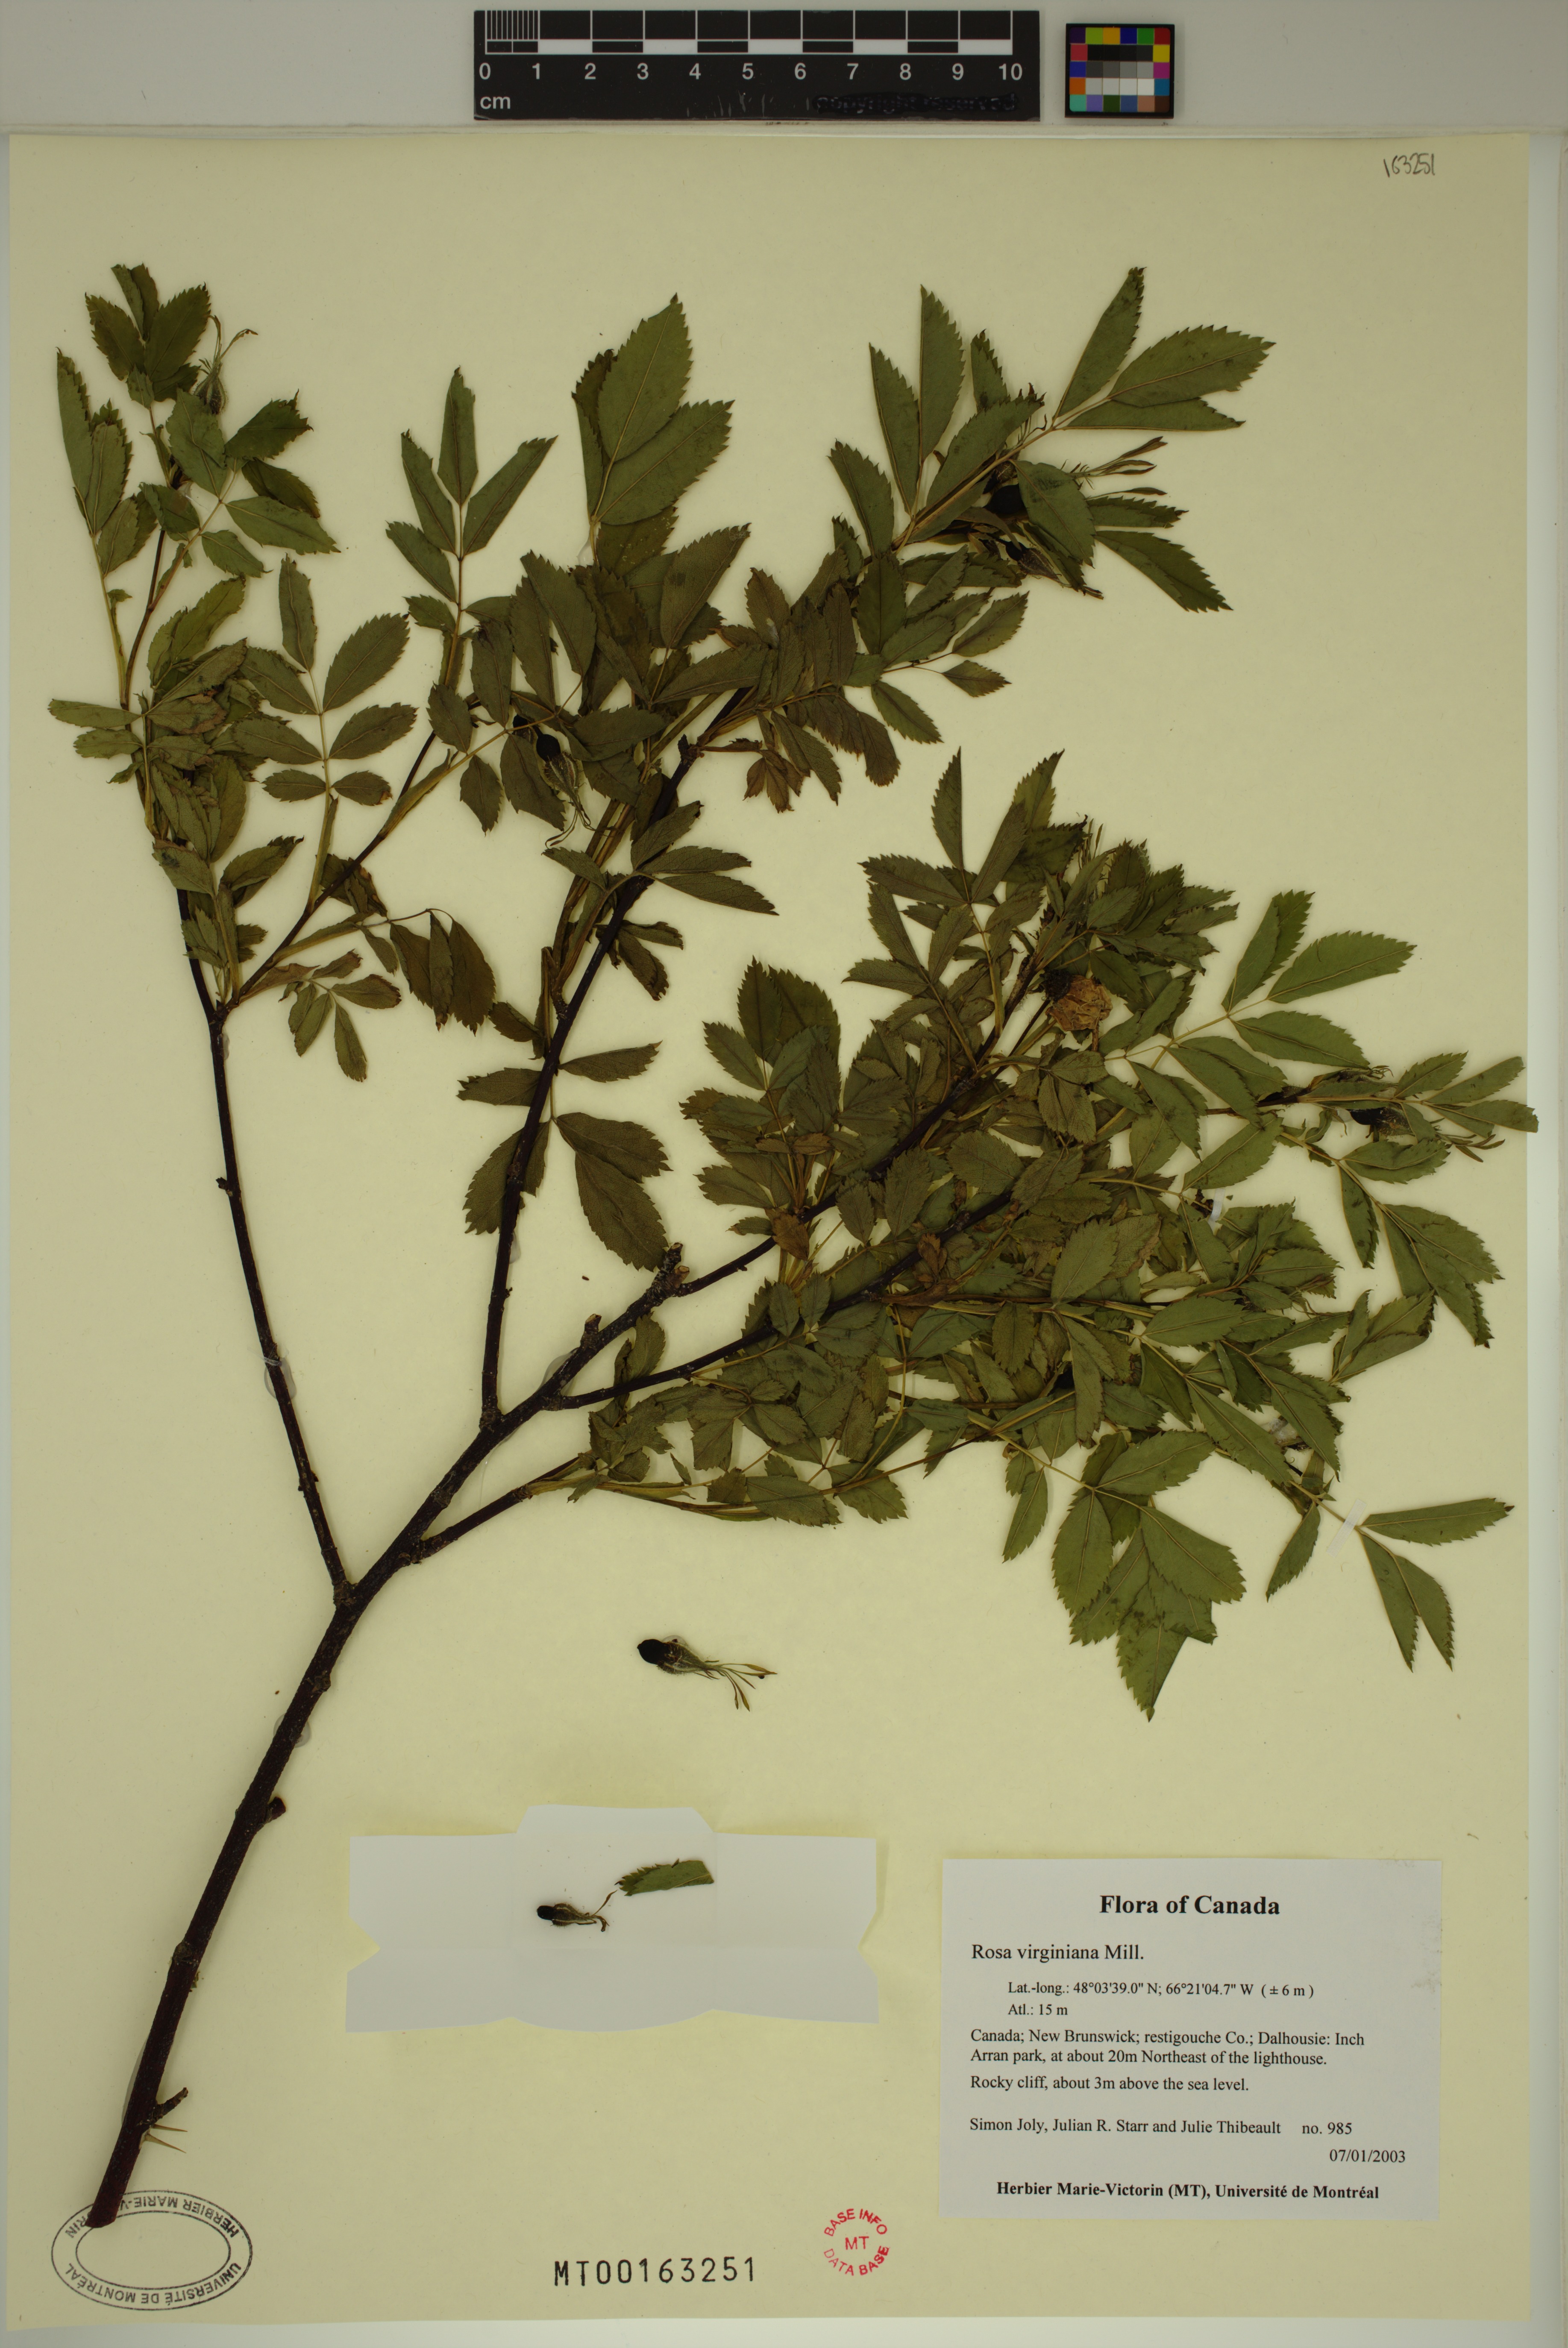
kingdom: Plantae
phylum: Tracheophyta
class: Magnoliopsida
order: Rosales
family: Rosaceae
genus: Rosa
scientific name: Rosa carolina
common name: Pasture rose
